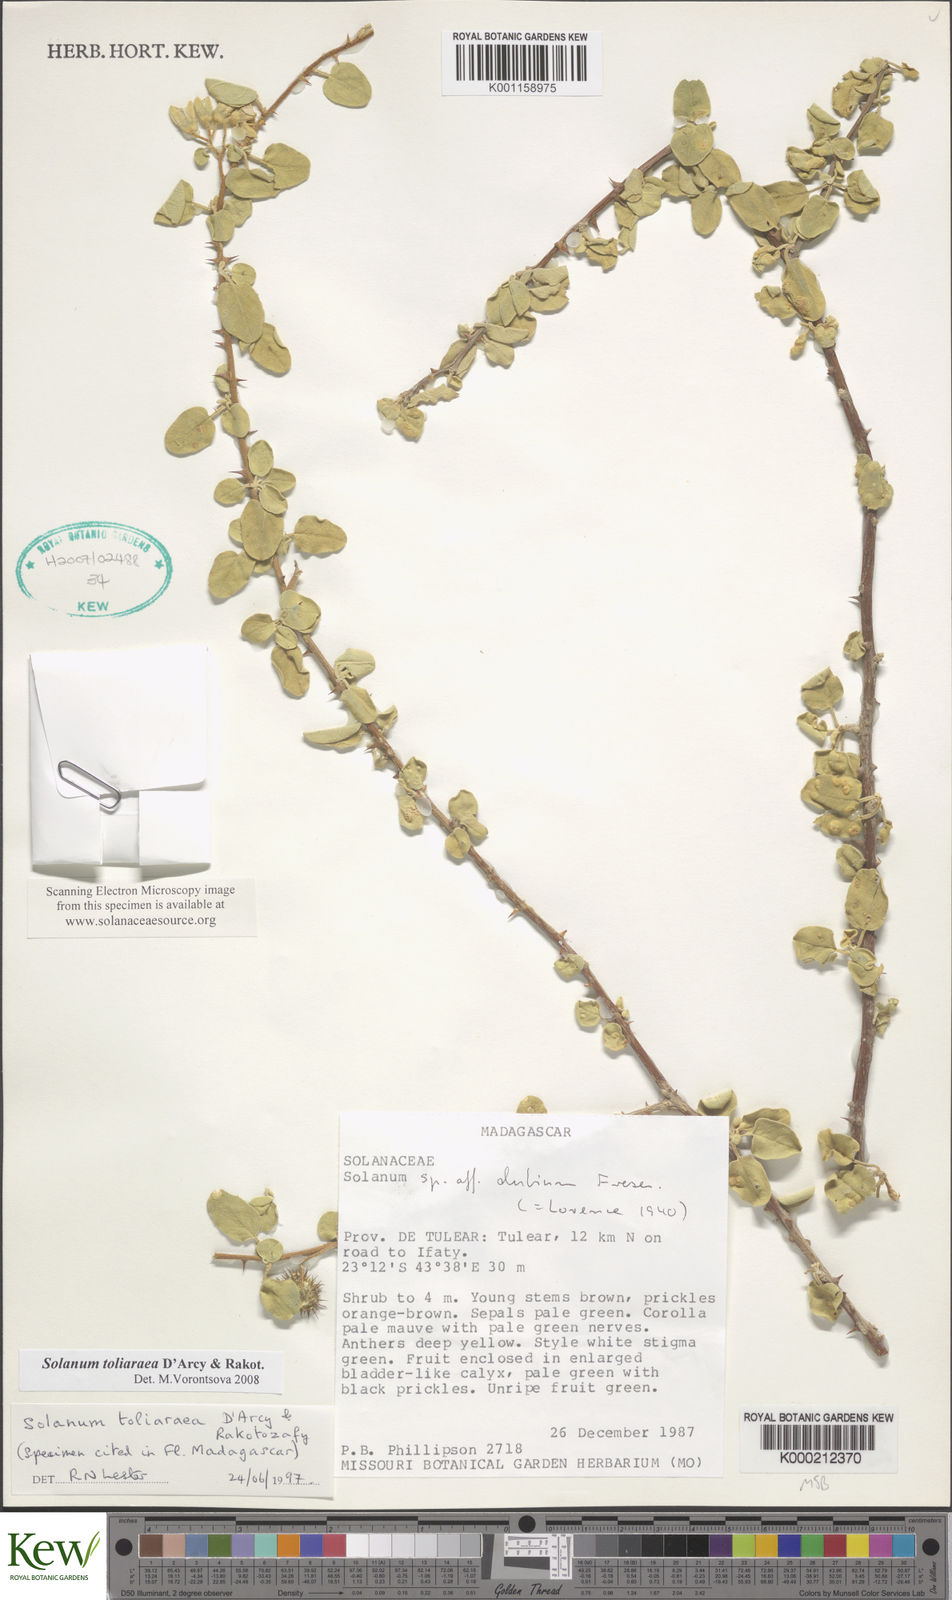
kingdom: Plantae
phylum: Tracheophyta
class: Magnoliopsida
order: Solanales
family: Solanaceae
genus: Solanum
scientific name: Solanum toliaraea
